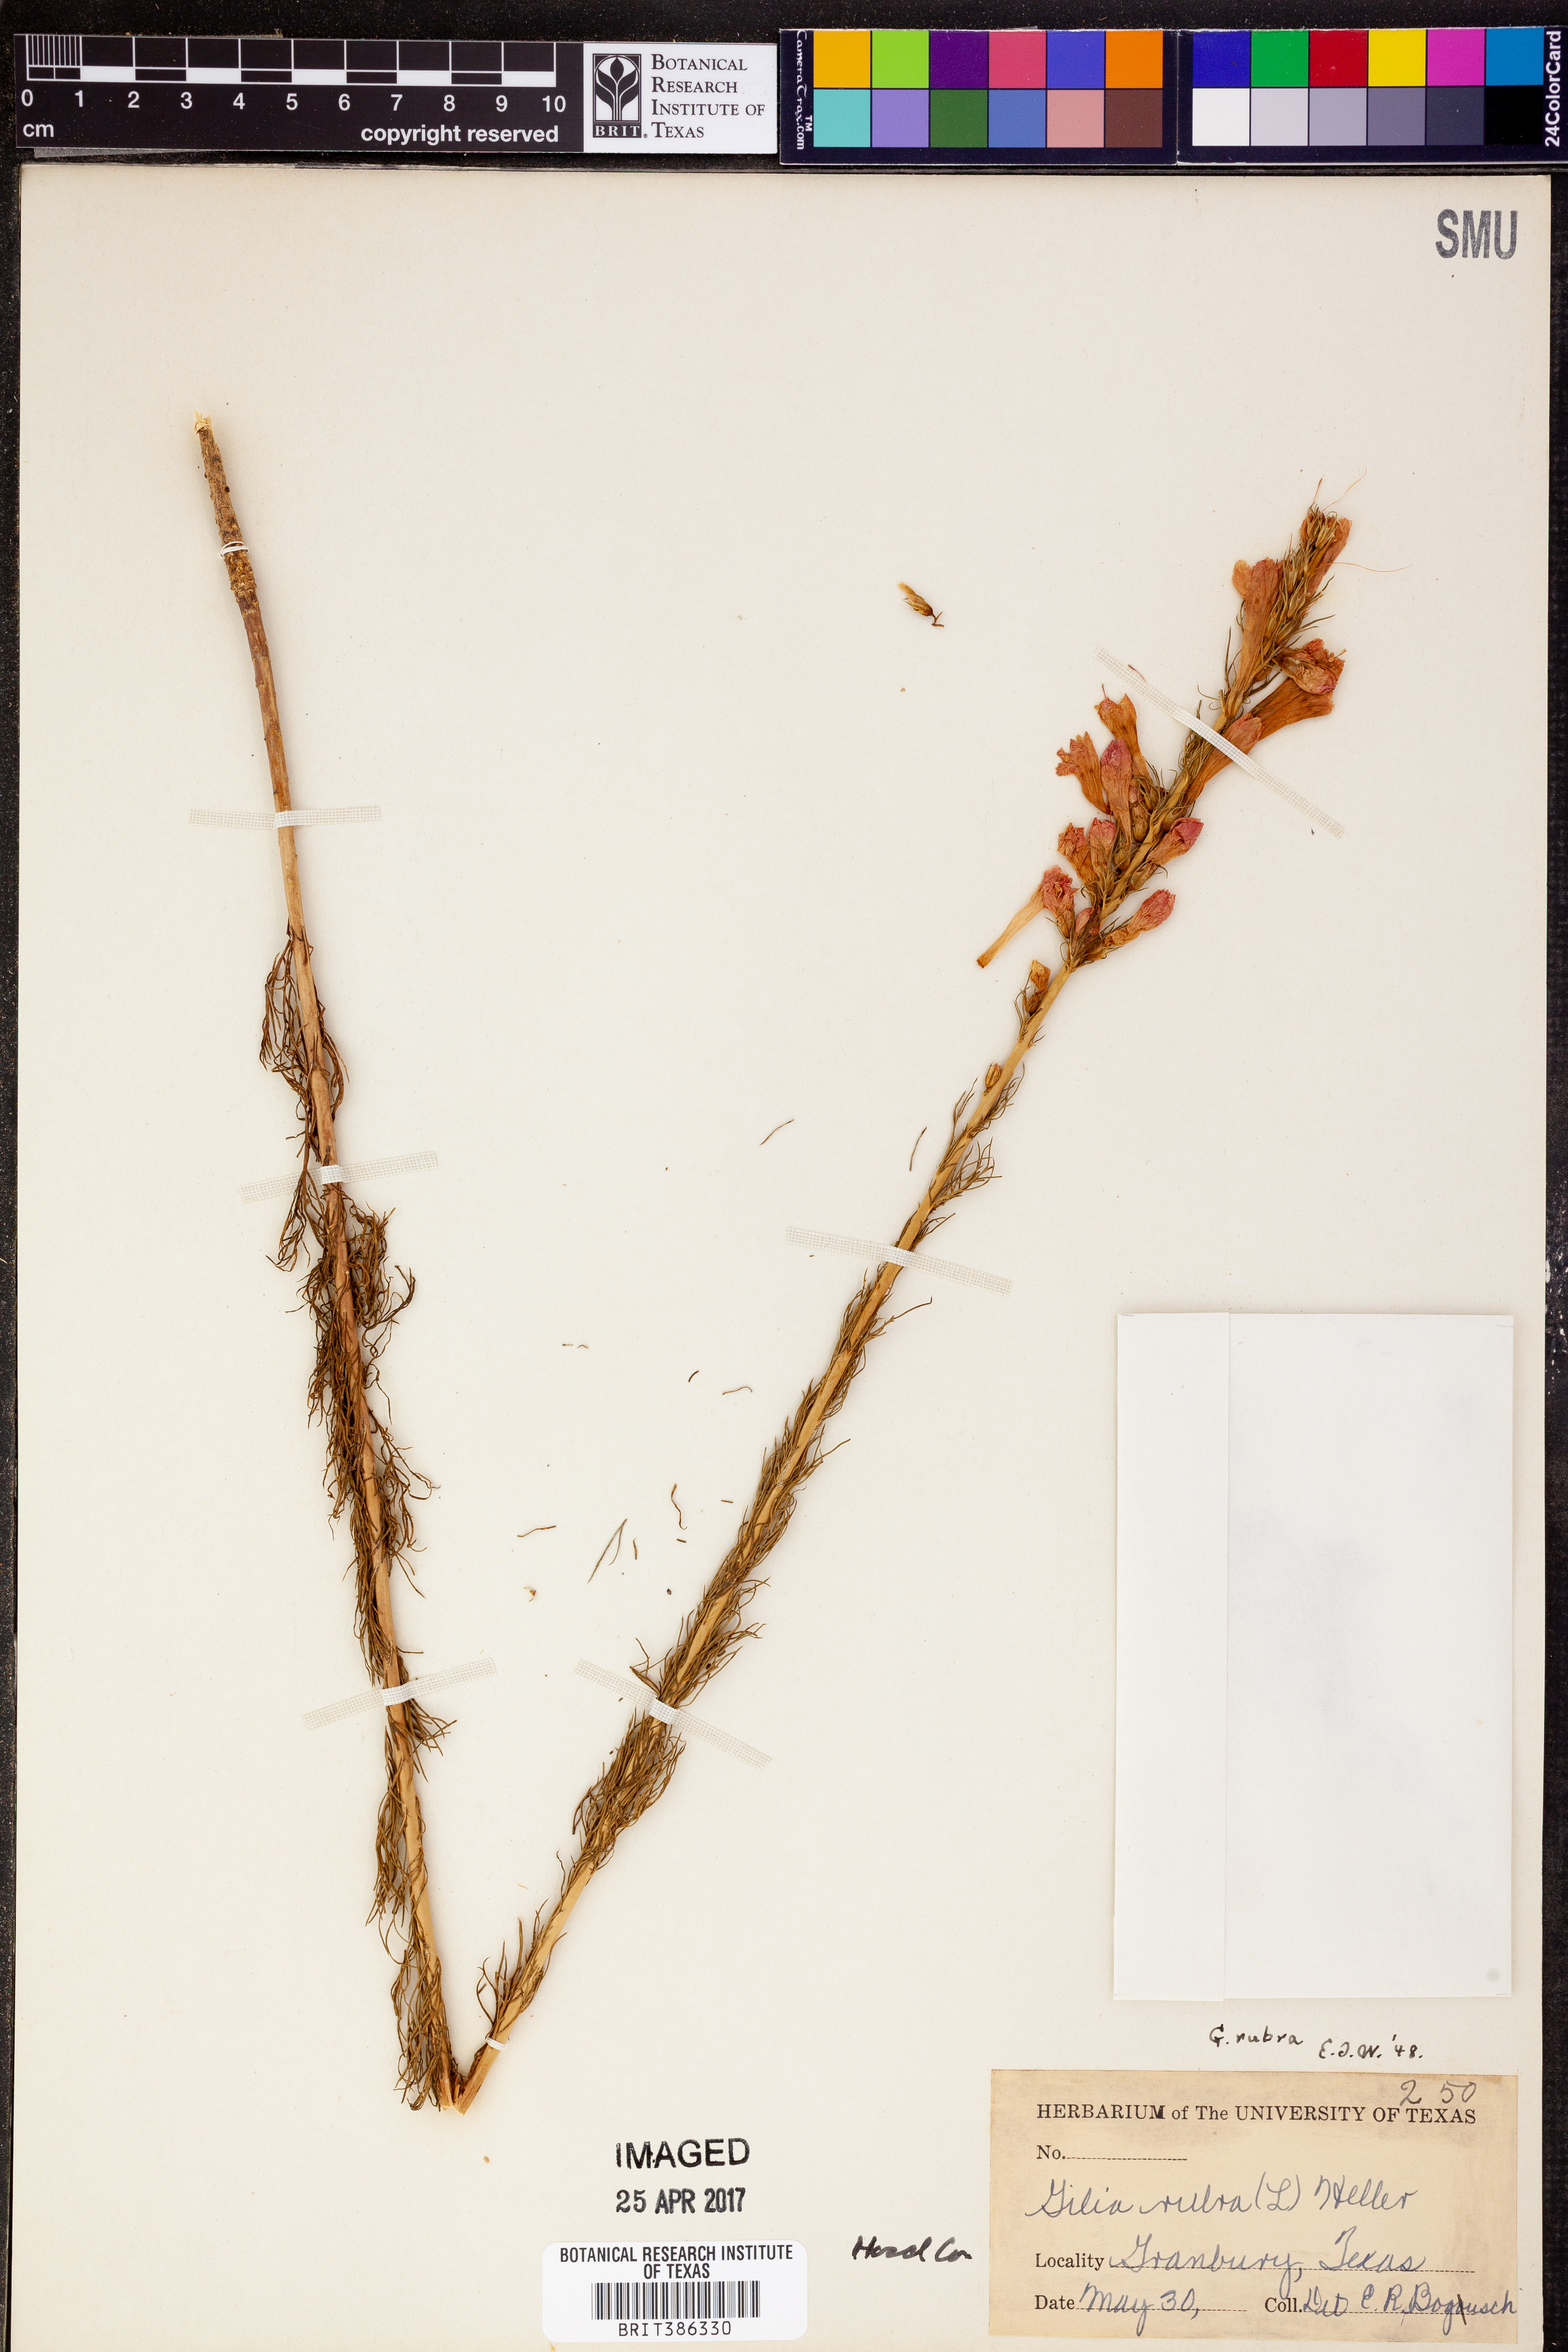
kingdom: Plantae
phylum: Tracheophyta
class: Magnoliopsida
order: Ericales
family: Polemoniaceae
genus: Ipomopsis
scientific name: Ipomopsis rubra
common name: Skyrocket
